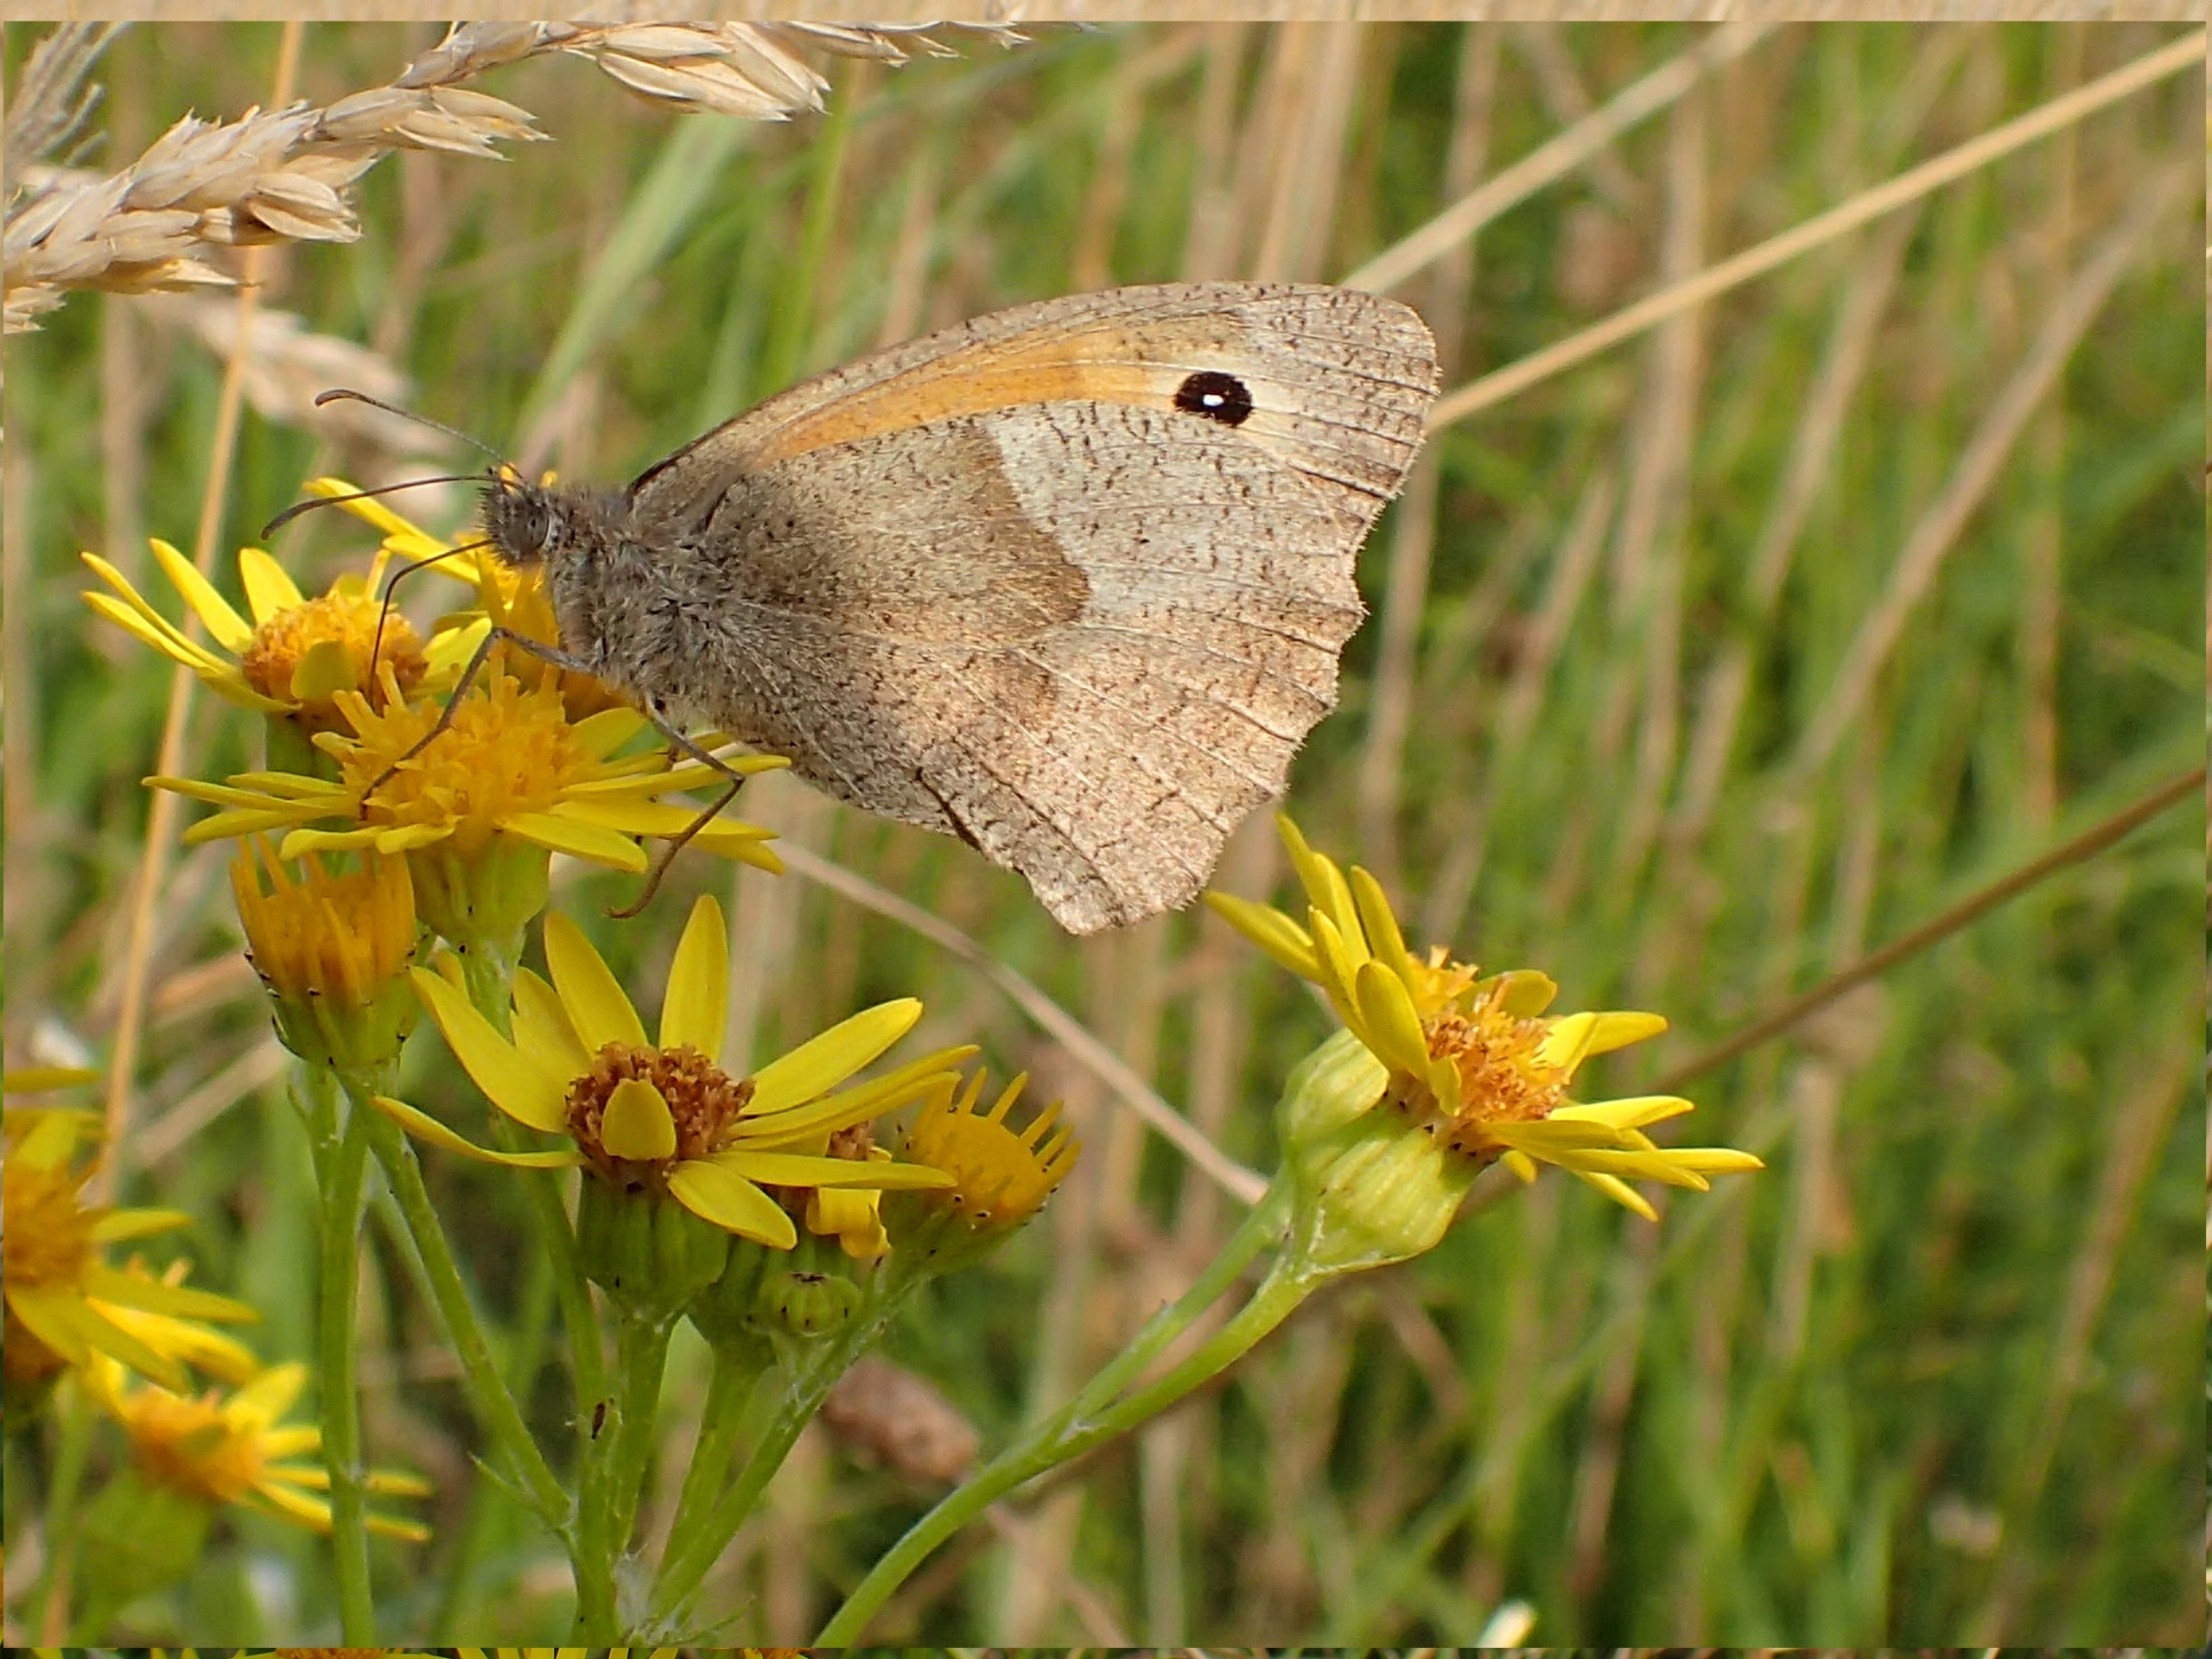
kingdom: Animalia
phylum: Arthropoda
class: Insecta
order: Lepidoptera
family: Nymphalidae
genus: Maniola
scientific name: Maniola jurtina
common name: Græsrandøje
